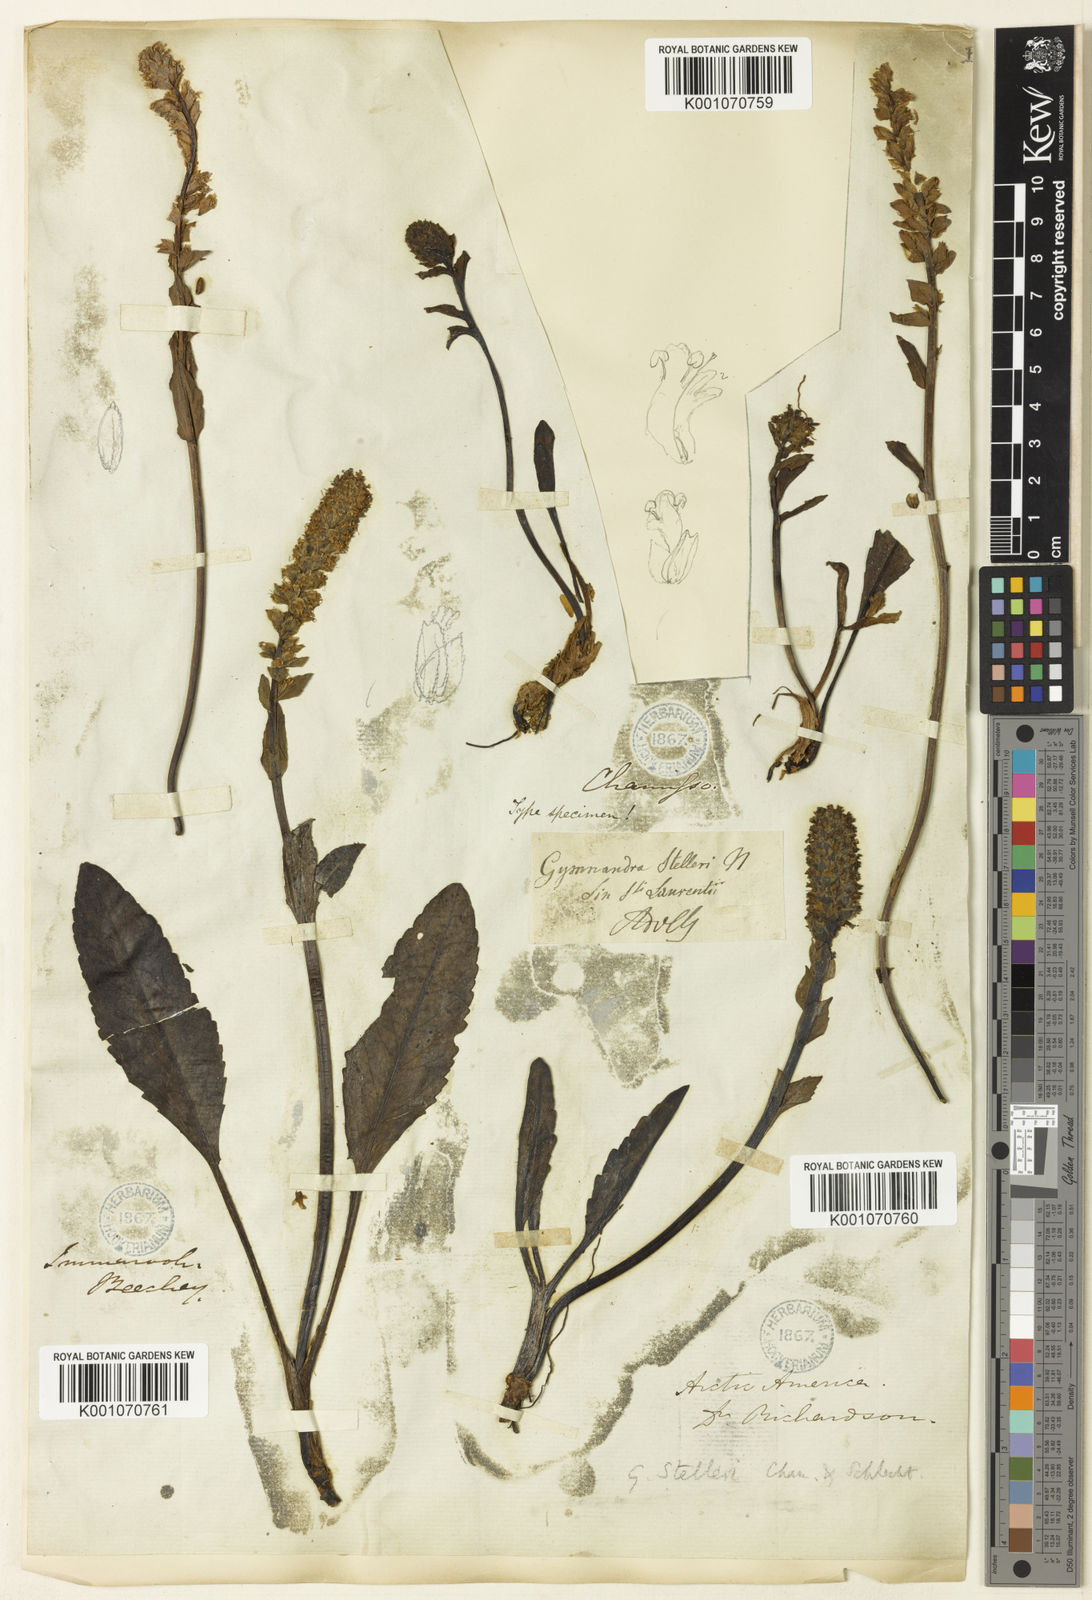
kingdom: Plantae
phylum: Tracheophyta
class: Magnoliopsida
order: Lamiales
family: Plantaginaceae
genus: Lagotis
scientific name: Lagotis glauca
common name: Glaucous weaselsnout
